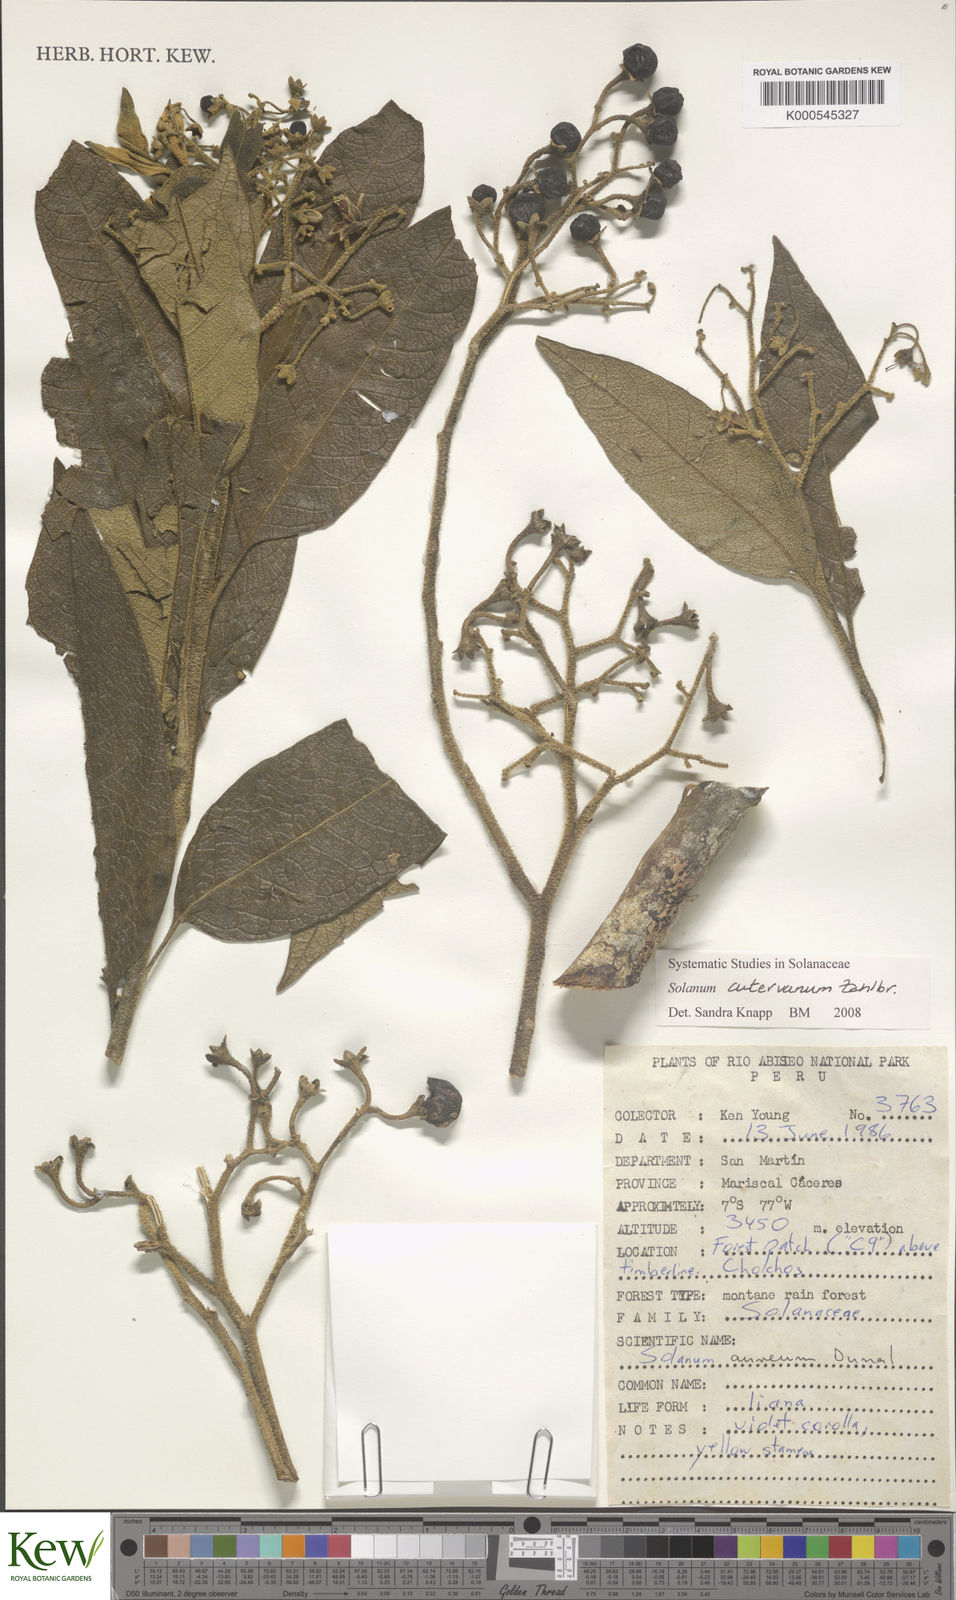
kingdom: Plantae
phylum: Tracheophyta
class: Magnoliopsida
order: Solanales
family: Solanaceae
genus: Solanum
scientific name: Solanum
